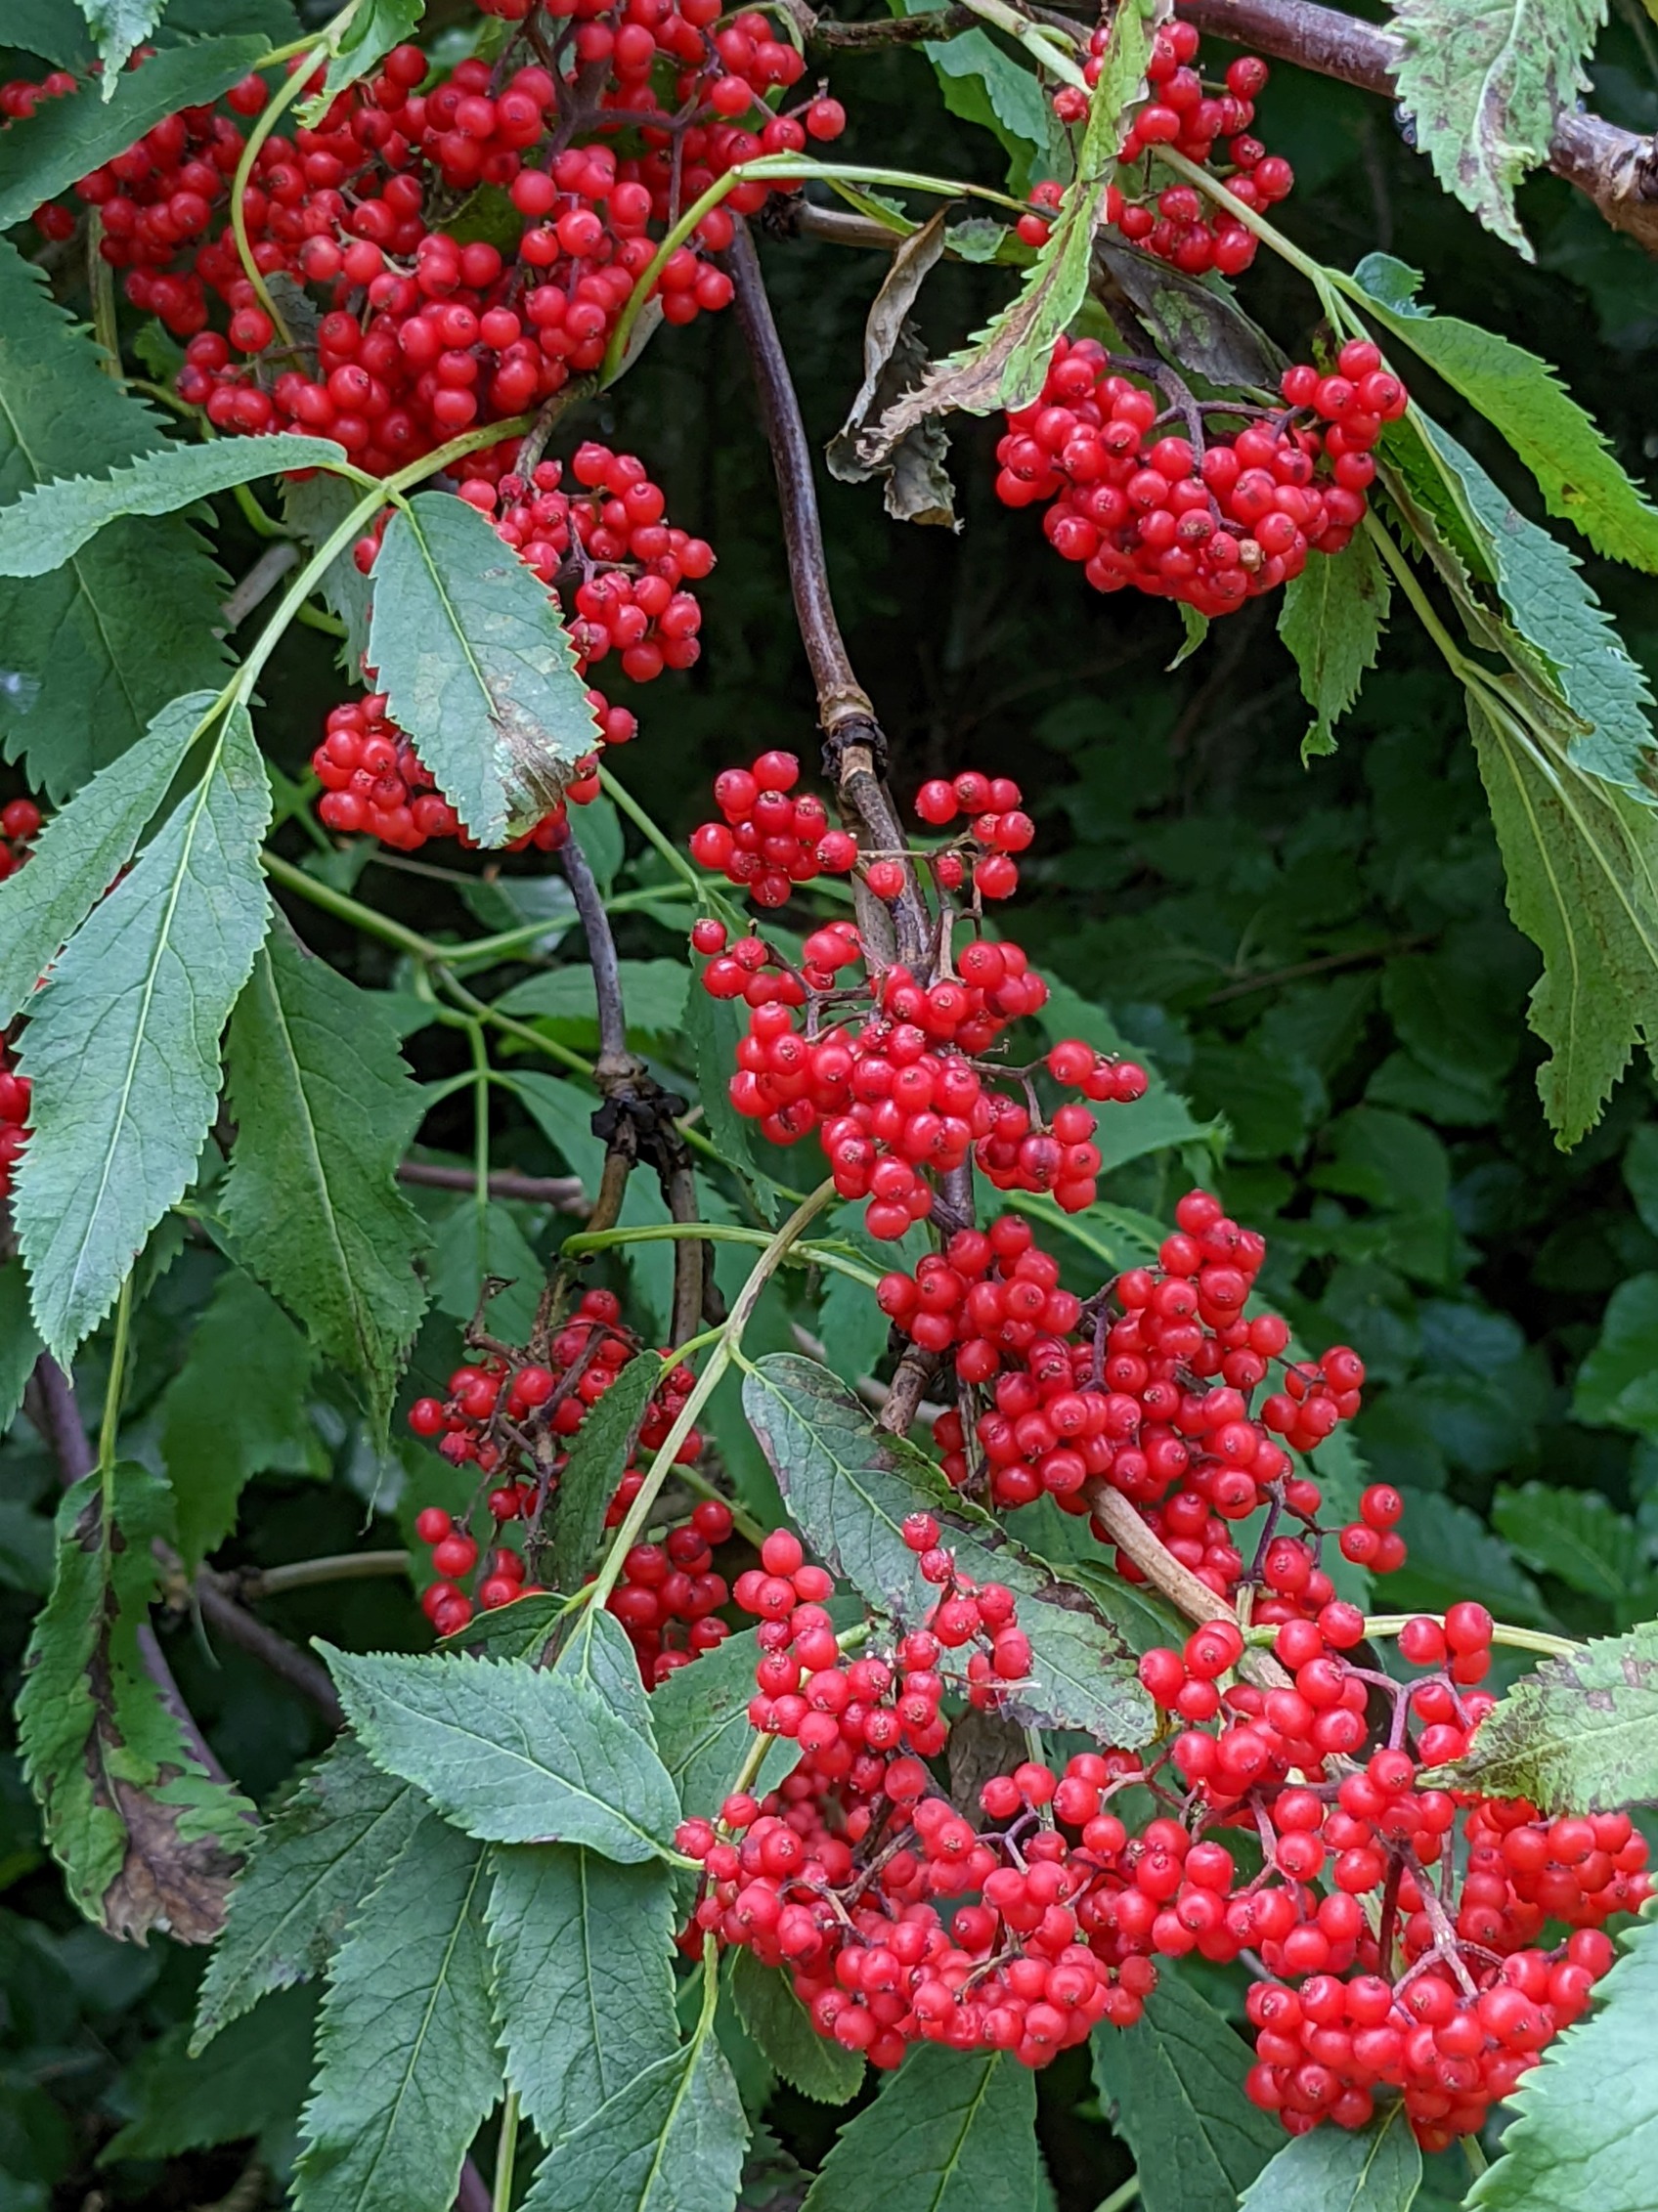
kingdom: Plantae
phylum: Tracheophyta
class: Magnoliopsida
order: Dipsacales
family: Viburnaceae
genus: Sambucus
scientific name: Sambucus racemosa
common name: Drue-hyld
